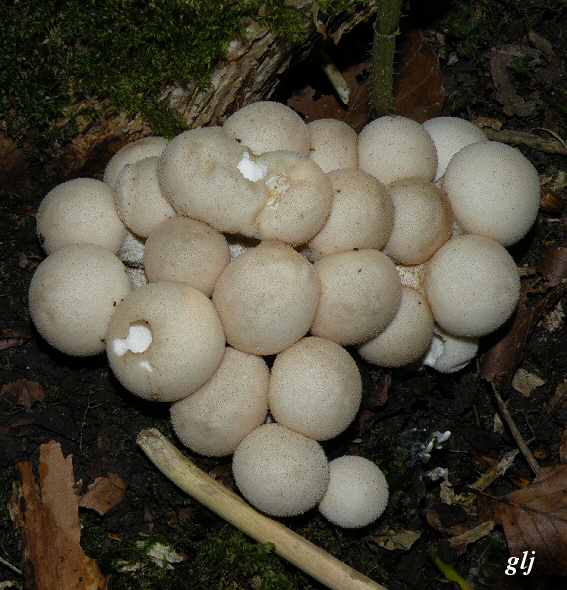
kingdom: Fungi
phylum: Basidiomycota
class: Agaricomycetes
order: Agaricales
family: Lycoperdaceae
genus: Apioperdon
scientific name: Apioperdon pyriforme
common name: pære-støvbold
